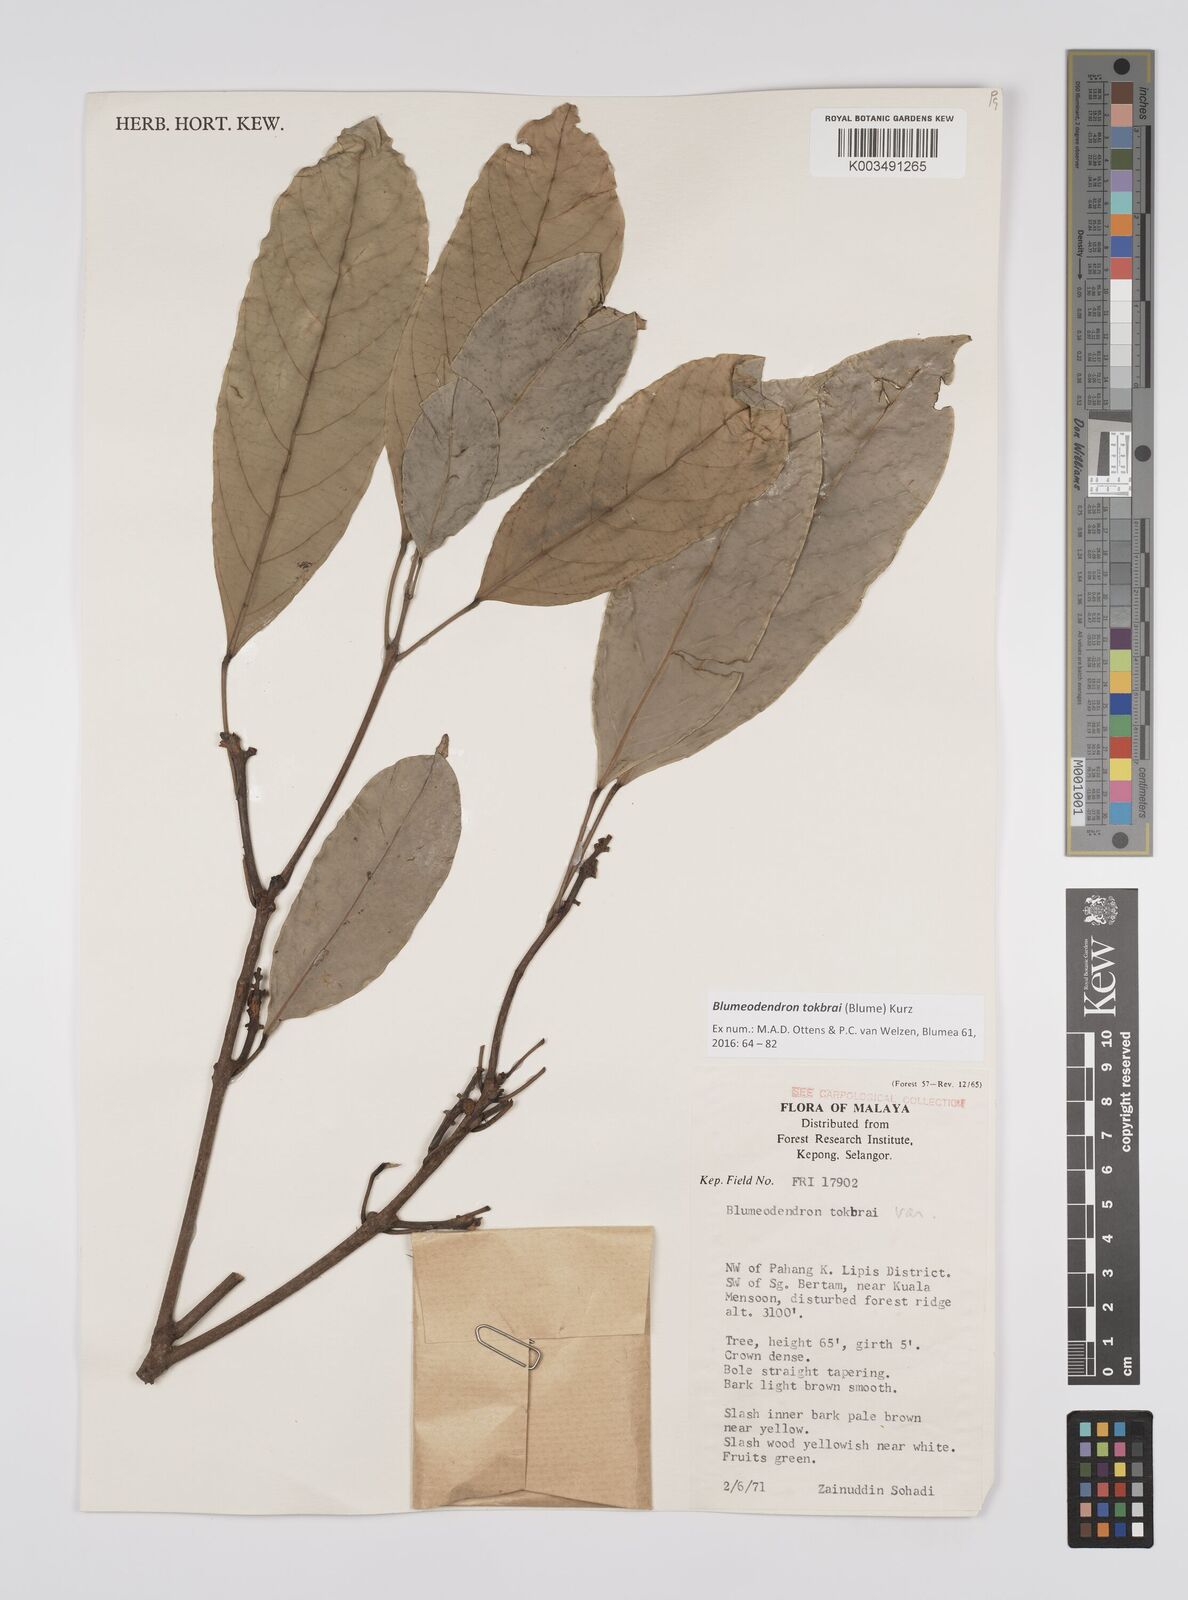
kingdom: Plantae
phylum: Tracheophyta
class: Magnoliopsida
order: Malpighiales
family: Euphorbiaceae
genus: Blumeodendron
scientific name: Blumeodendron tokbrai
